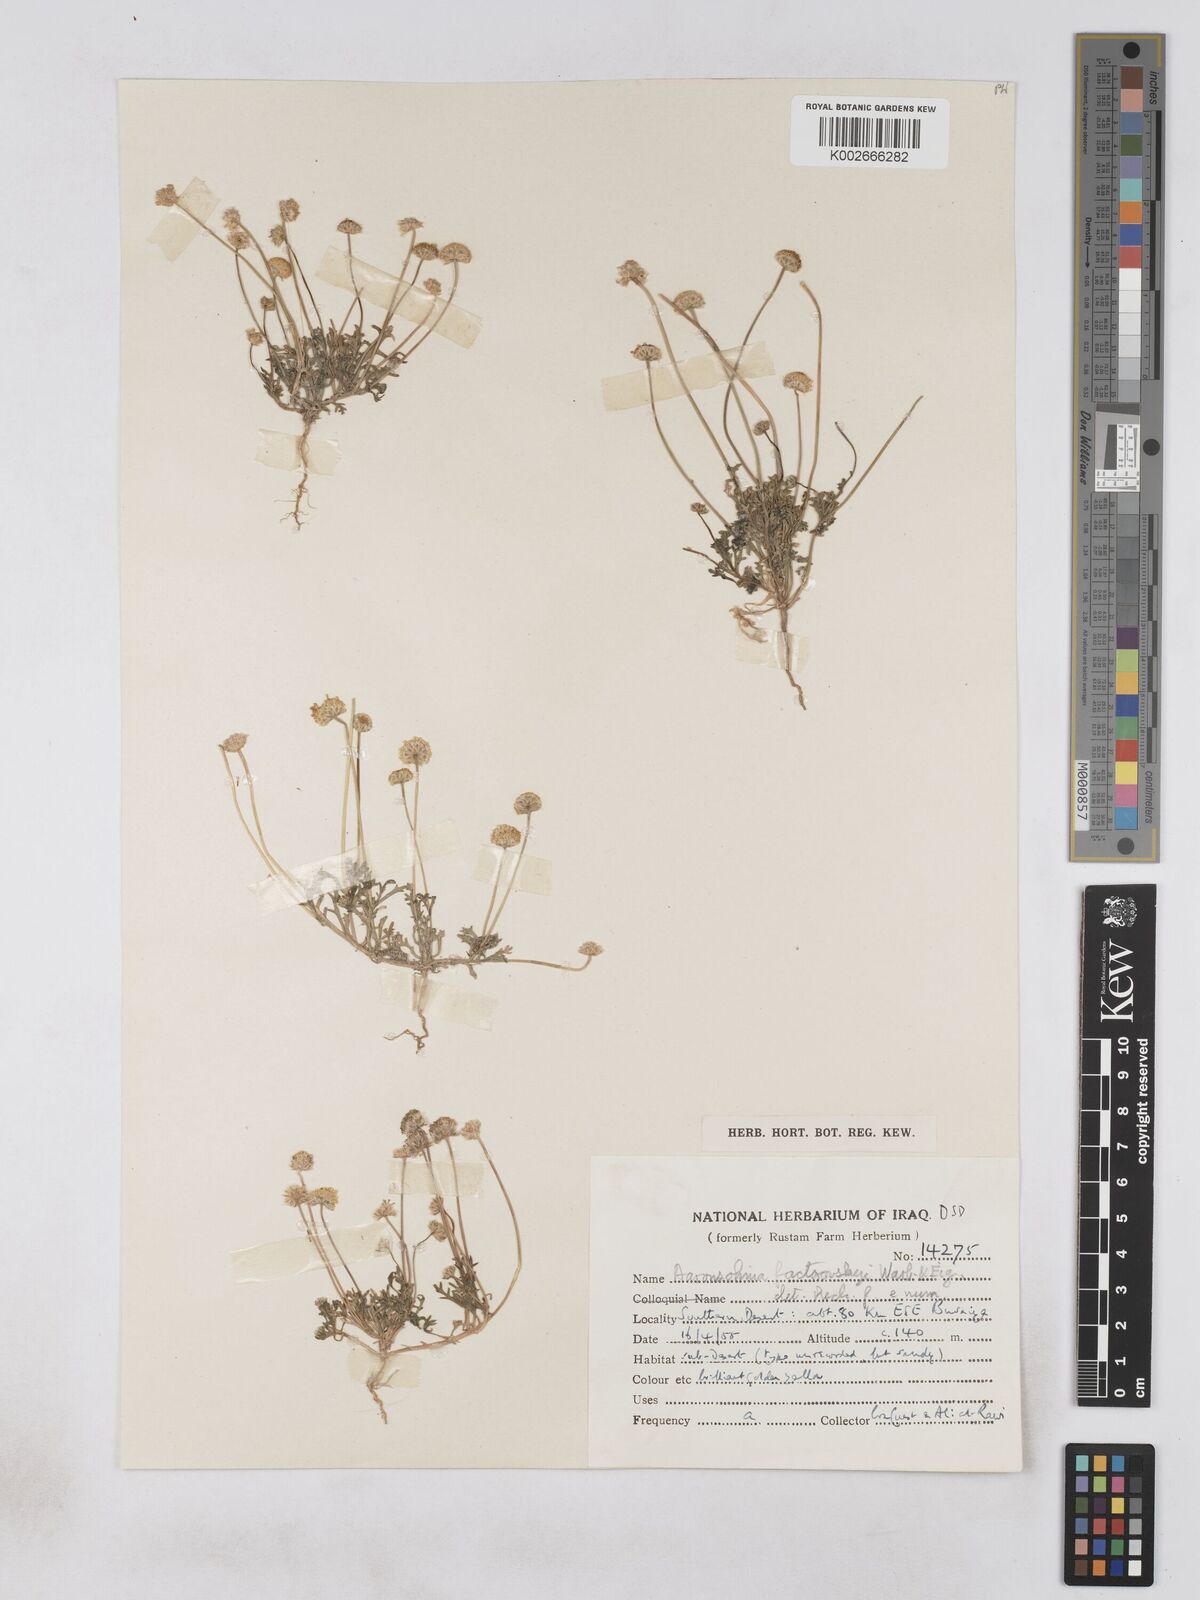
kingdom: Plantae
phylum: Tracheophyta
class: Magnoliopsida
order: Asterales
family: Asteraceae
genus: Otoglyphis
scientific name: Otoglyphis factorovskyi
